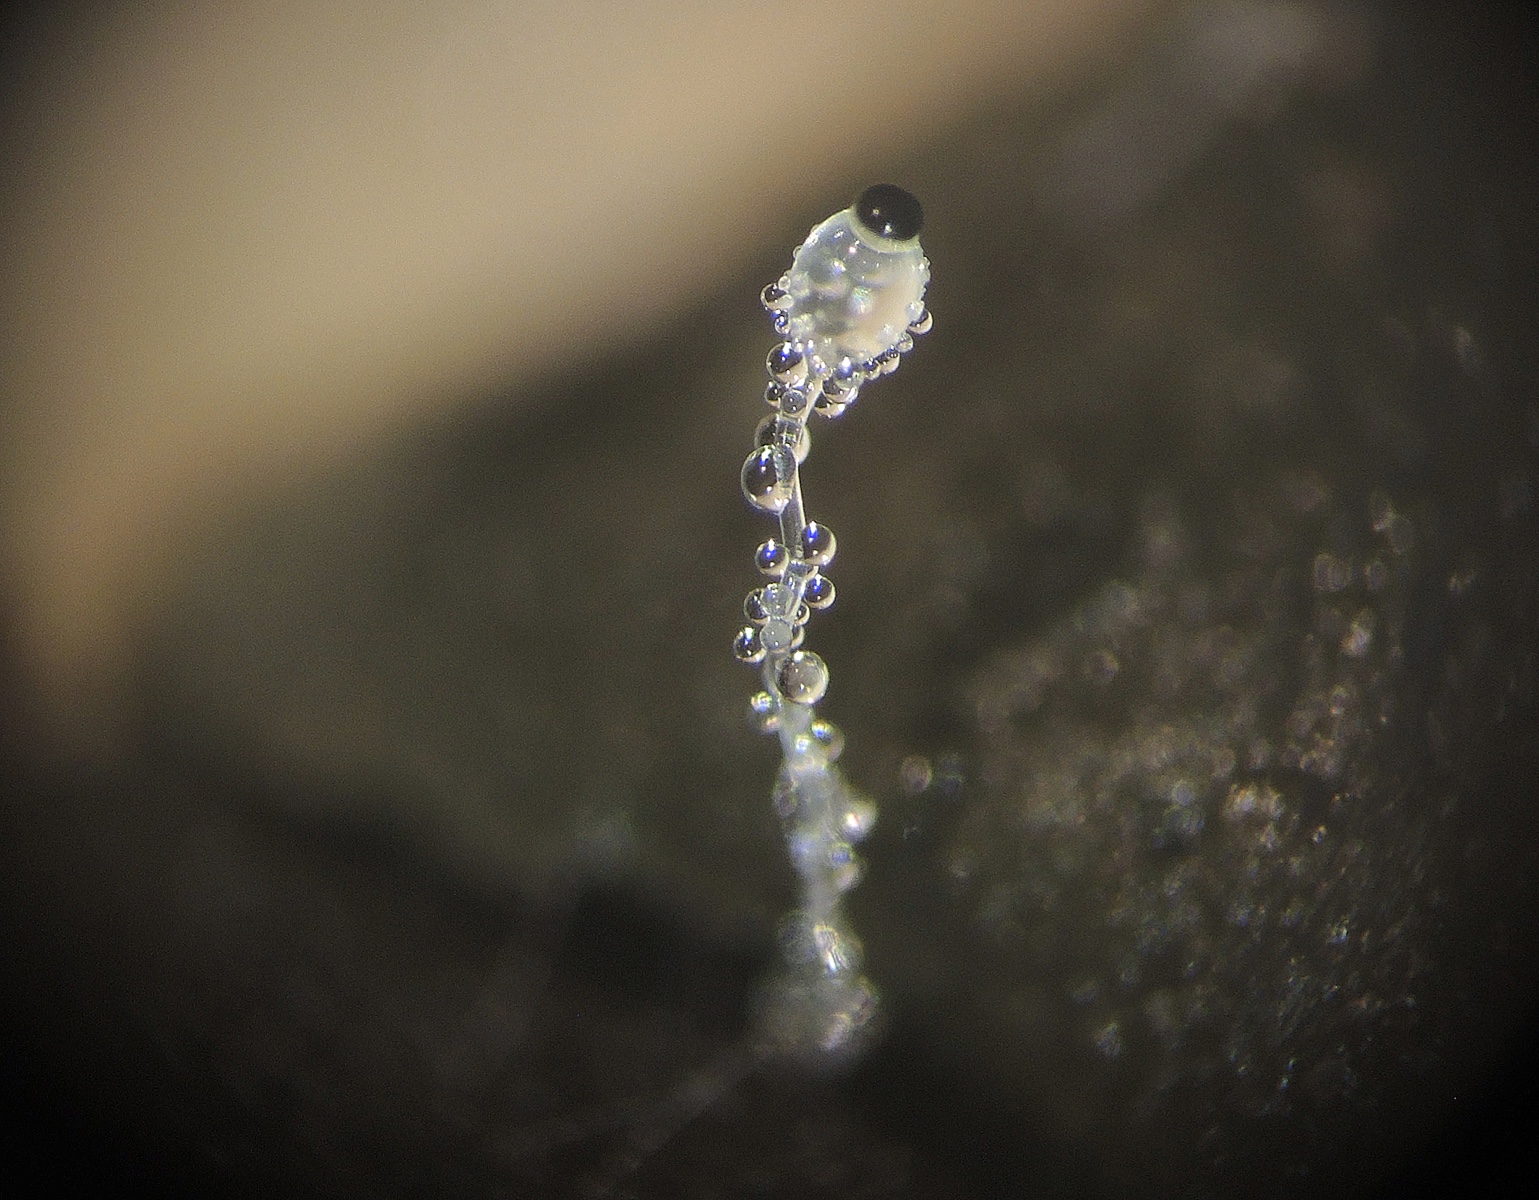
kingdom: Fungi
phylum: Mucoromycota
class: Mucoromycetes
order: Mucorales
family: Pilobolaceae
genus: Pilobolus
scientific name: Pilobolus crystallinus
